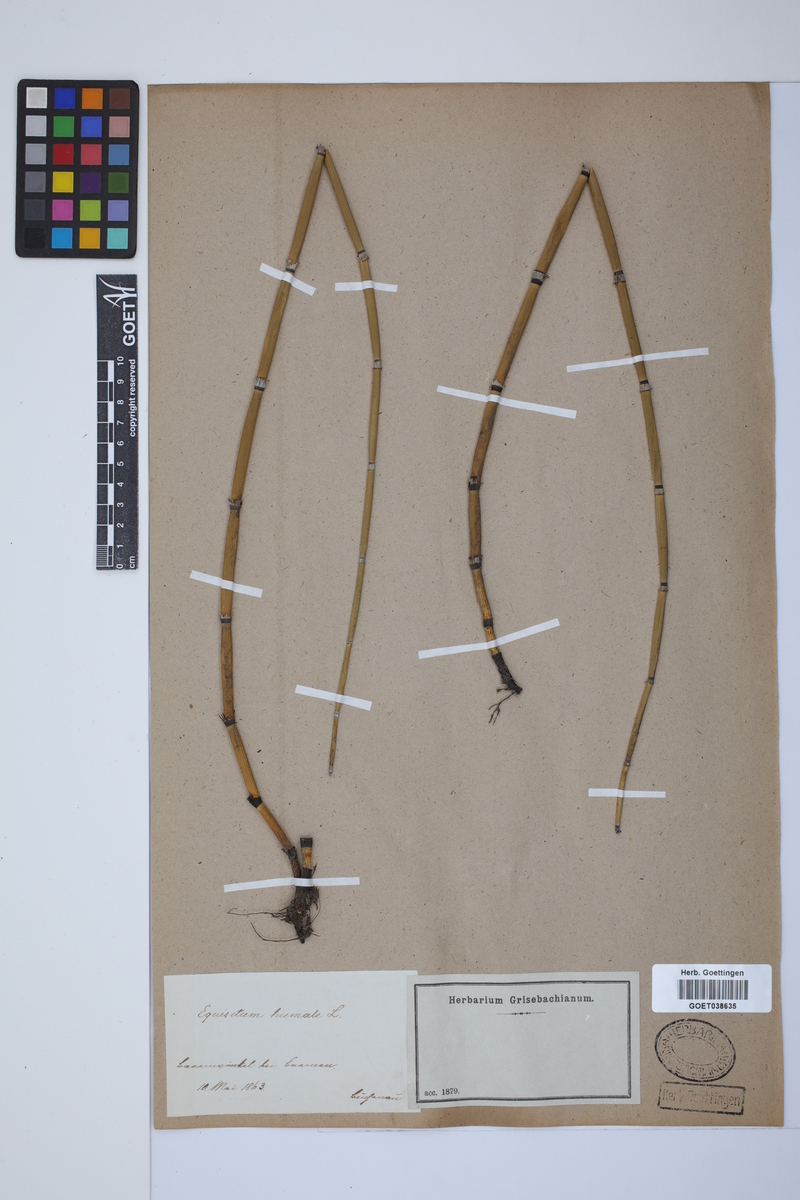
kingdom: Plantae
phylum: Tracheophyta
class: Polypodiopsida
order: Equisetales
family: Equisetaceae
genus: Equisetum
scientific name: Equisetum hyemale
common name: Rough horsetail
